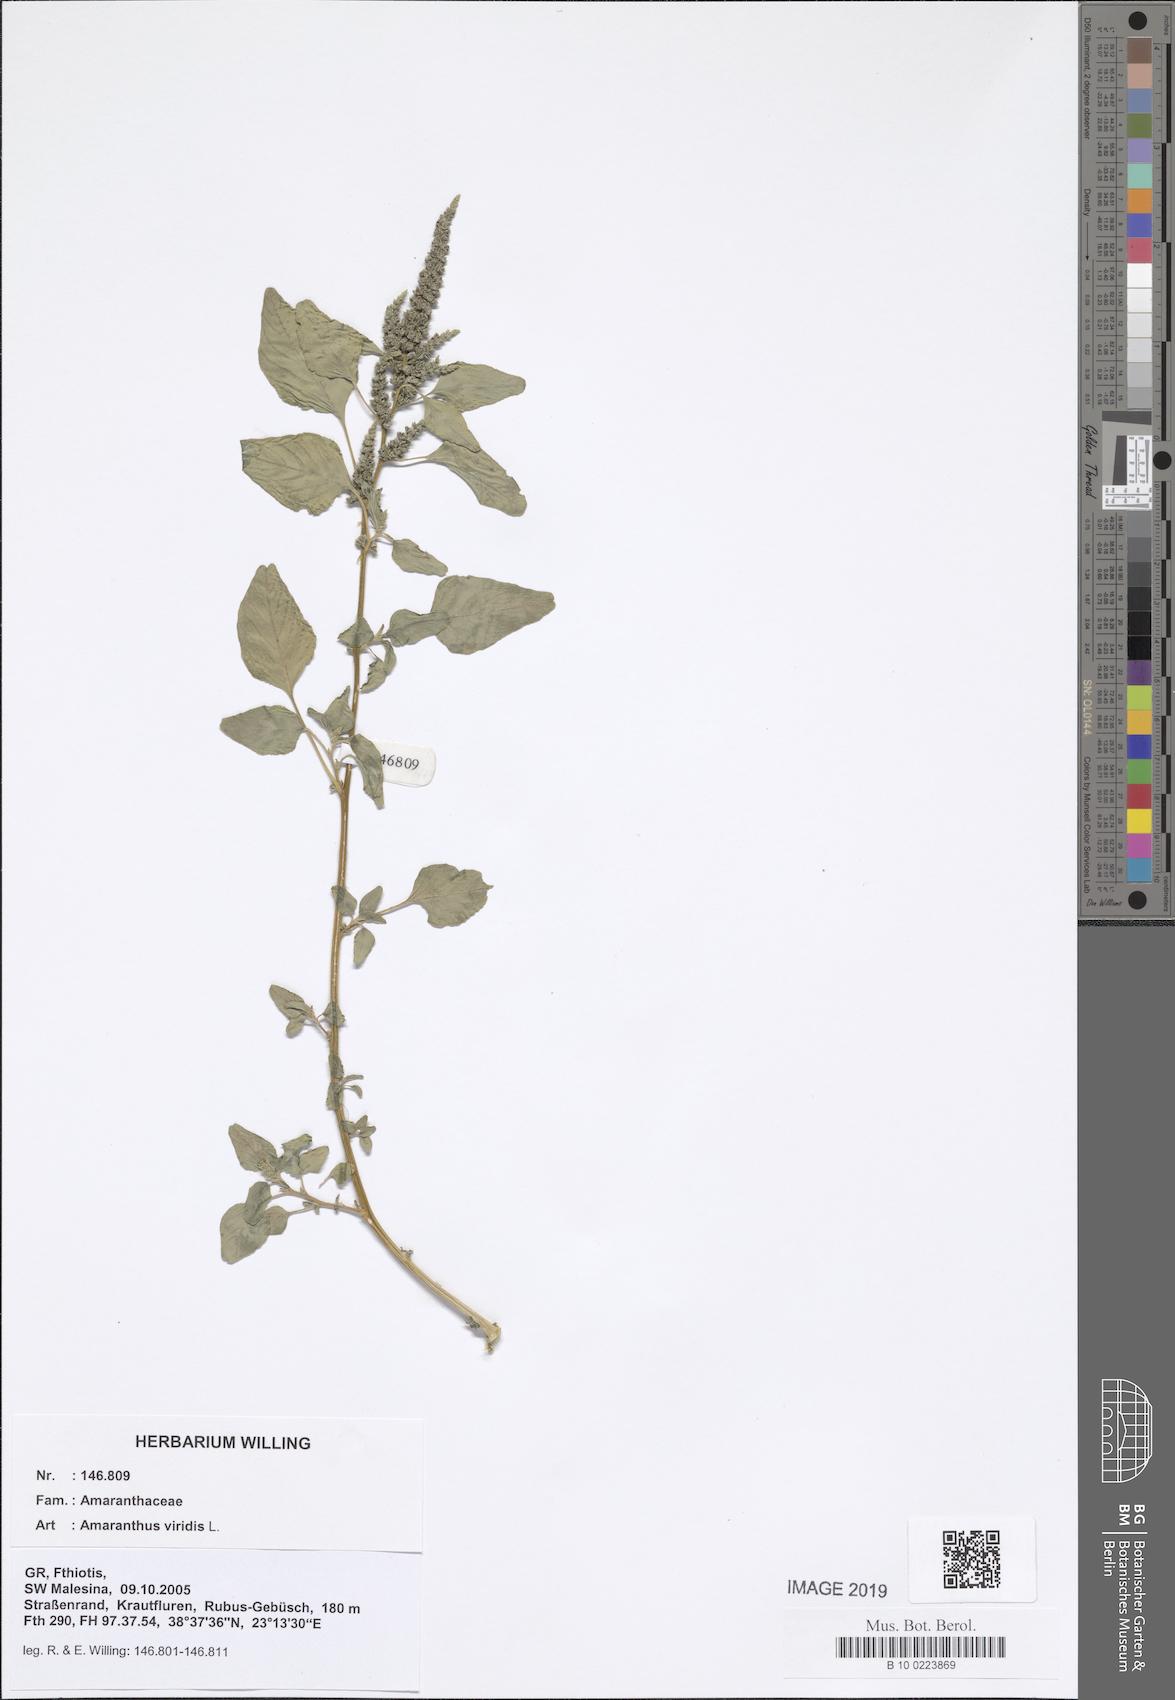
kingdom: Plantae
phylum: Tracheophyta
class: Magnoliopsida
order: Caryophyllales
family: Amaranthaceae
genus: Amaranthus
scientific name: Amaranthus viridis
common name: Slender amaranth
